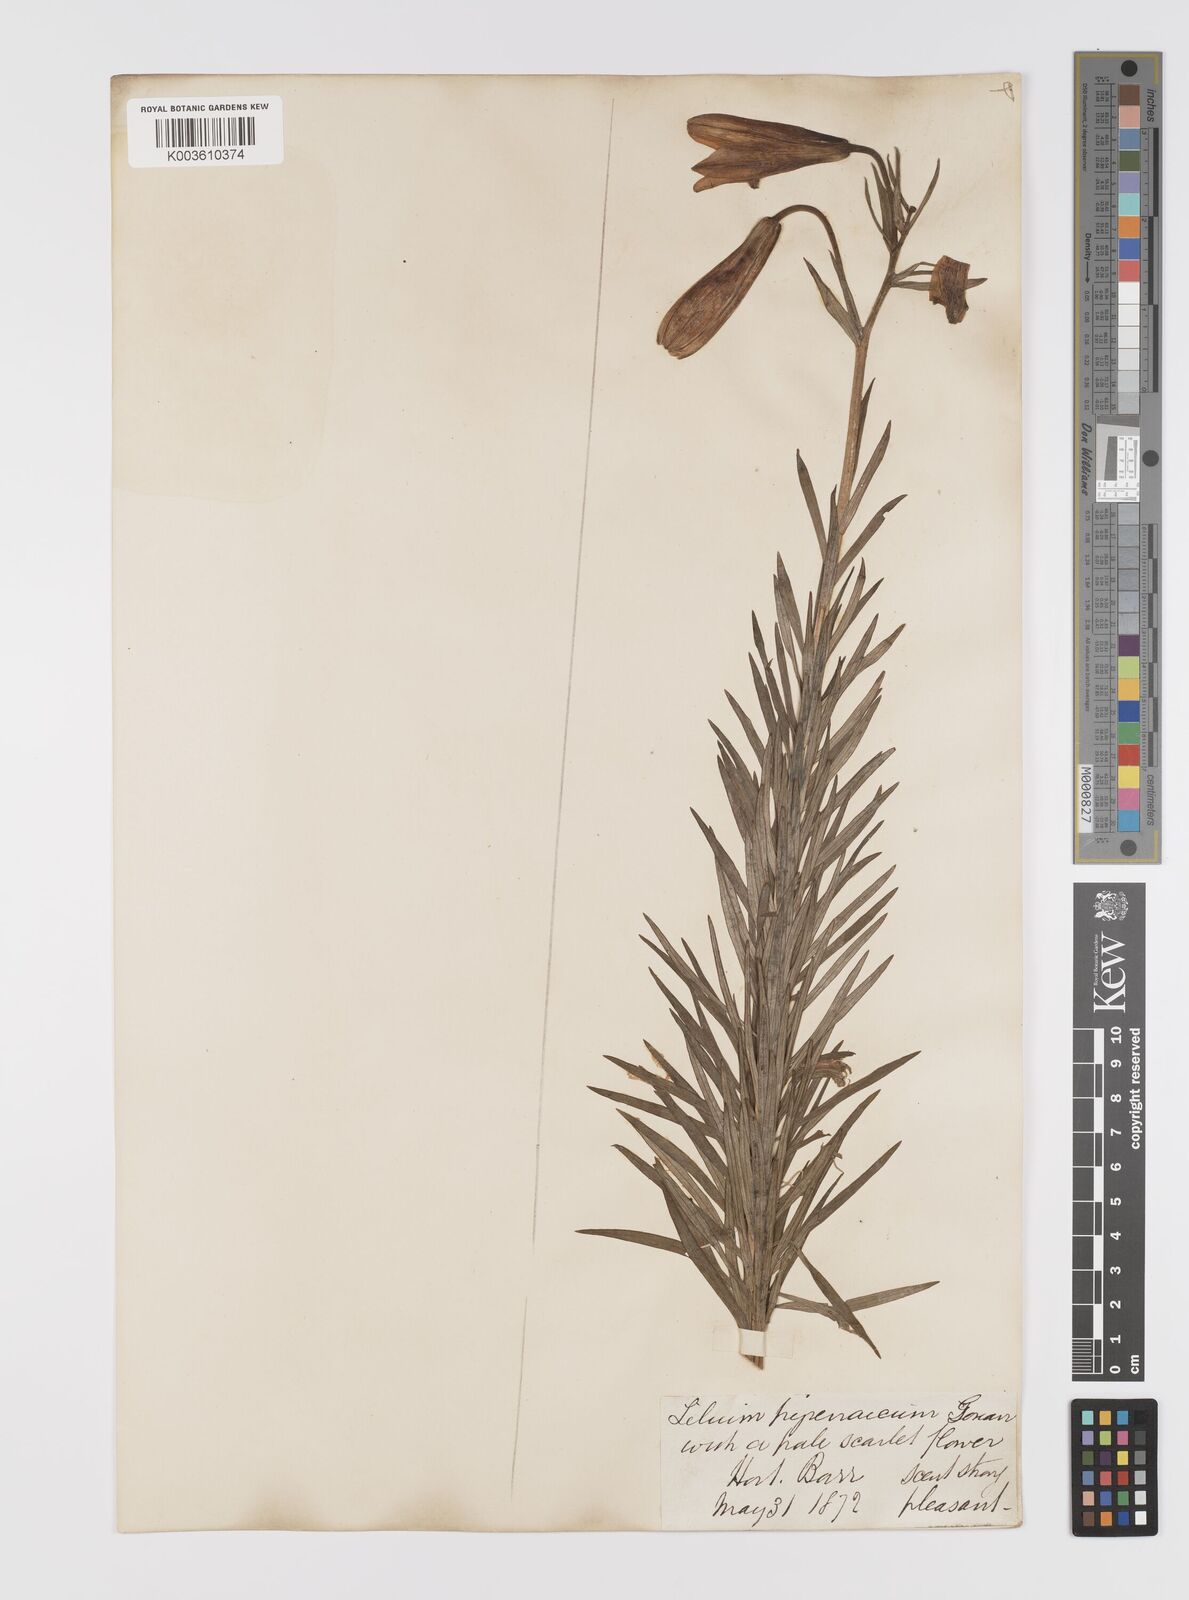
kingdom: Plantae
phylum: Tracheophyta
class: Liliopsida
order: Liliales
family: Liliaceae
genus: Lilium
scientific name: Lilium pyrenaicum
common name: Pyrenean lily
